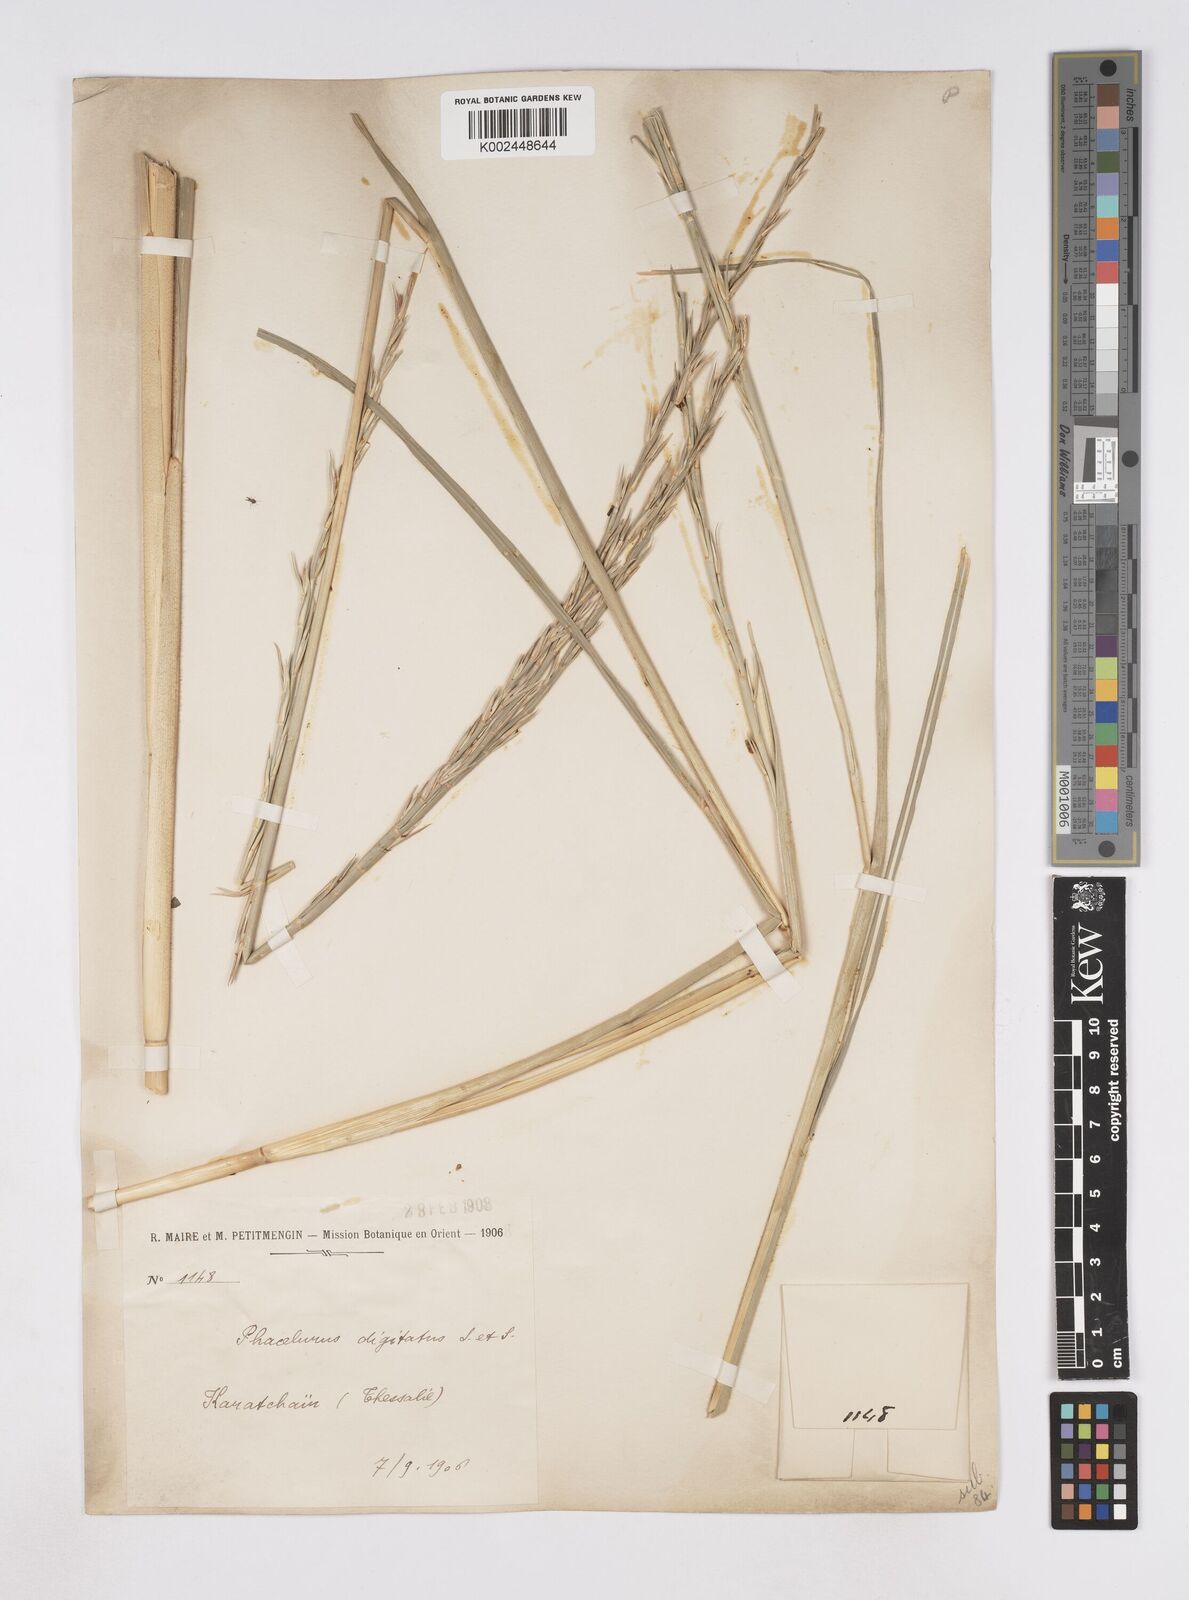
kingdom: Plantae
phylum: Tracheophyta
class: Liliopsida
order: Poales
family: Poaceae
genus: Phacelurus
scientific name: Phacelurus digitatus
